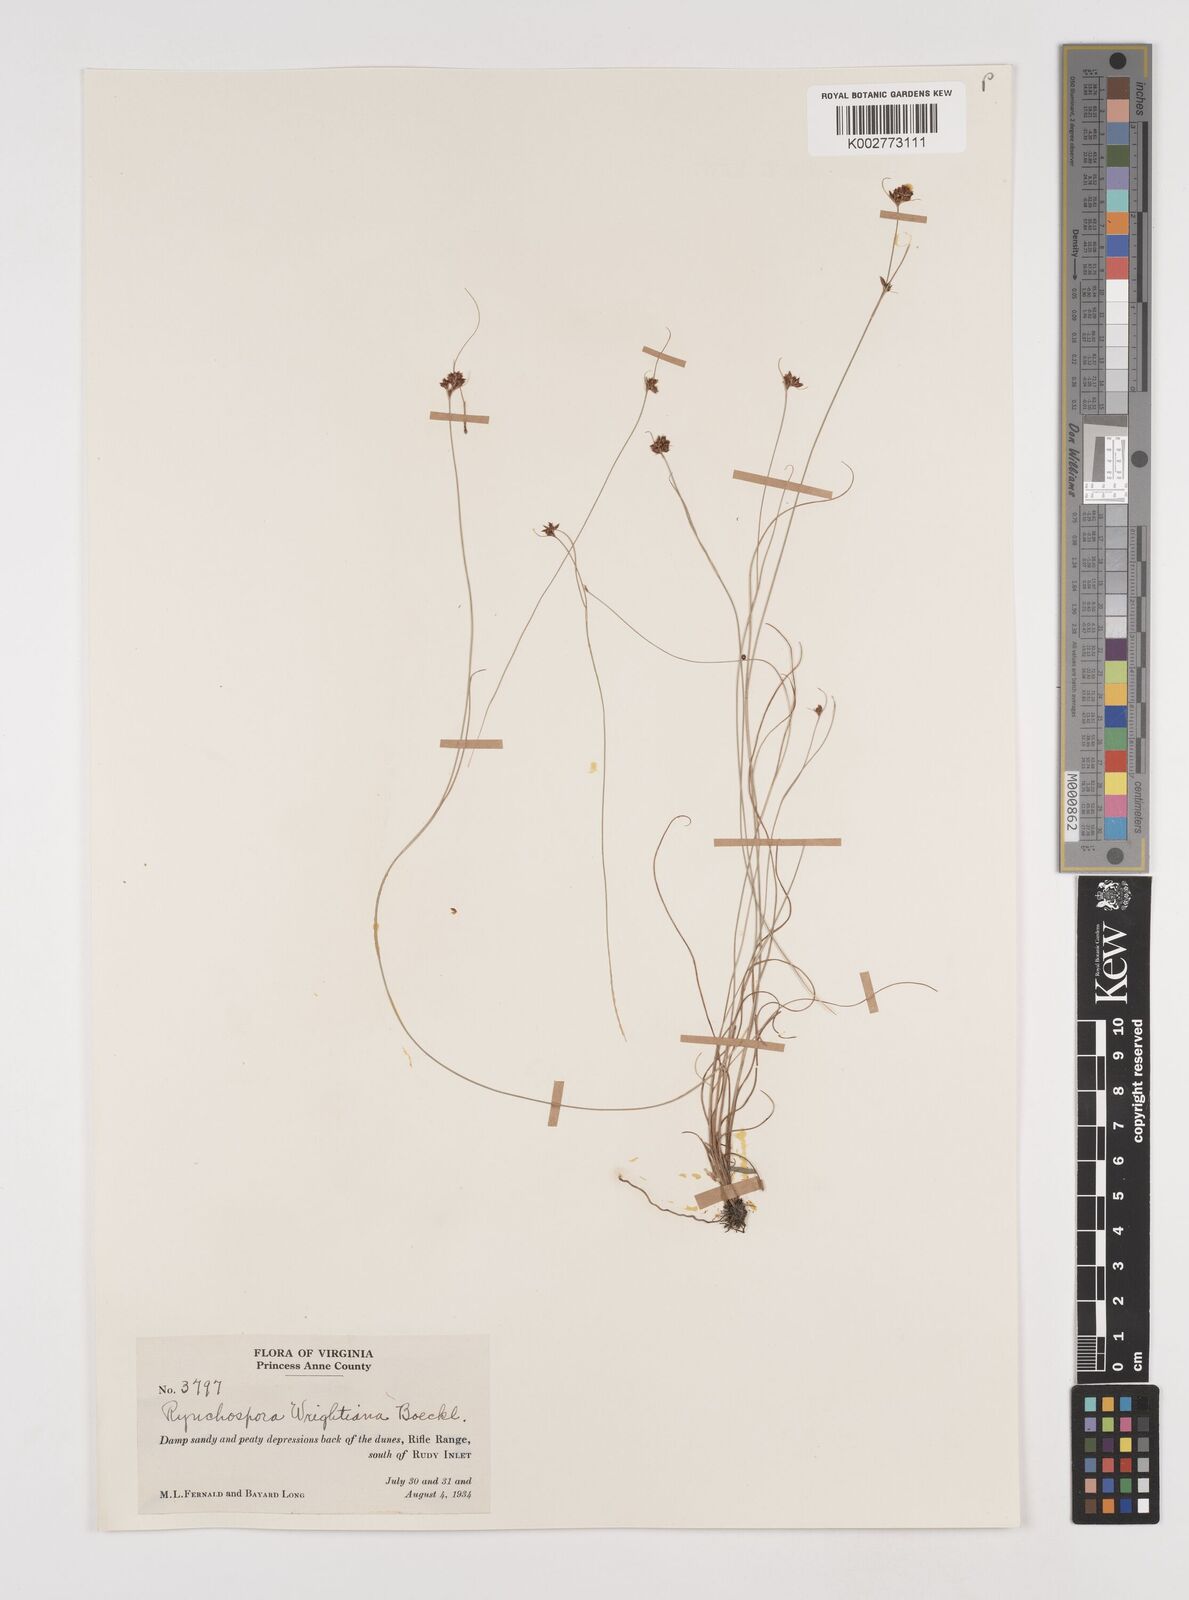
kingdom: Plantae
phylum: Tracheophyta
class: Liliopsida
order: Poales
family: Cyperaceae
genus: Rhynchospora
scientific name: Rhynchospora wrightiana
